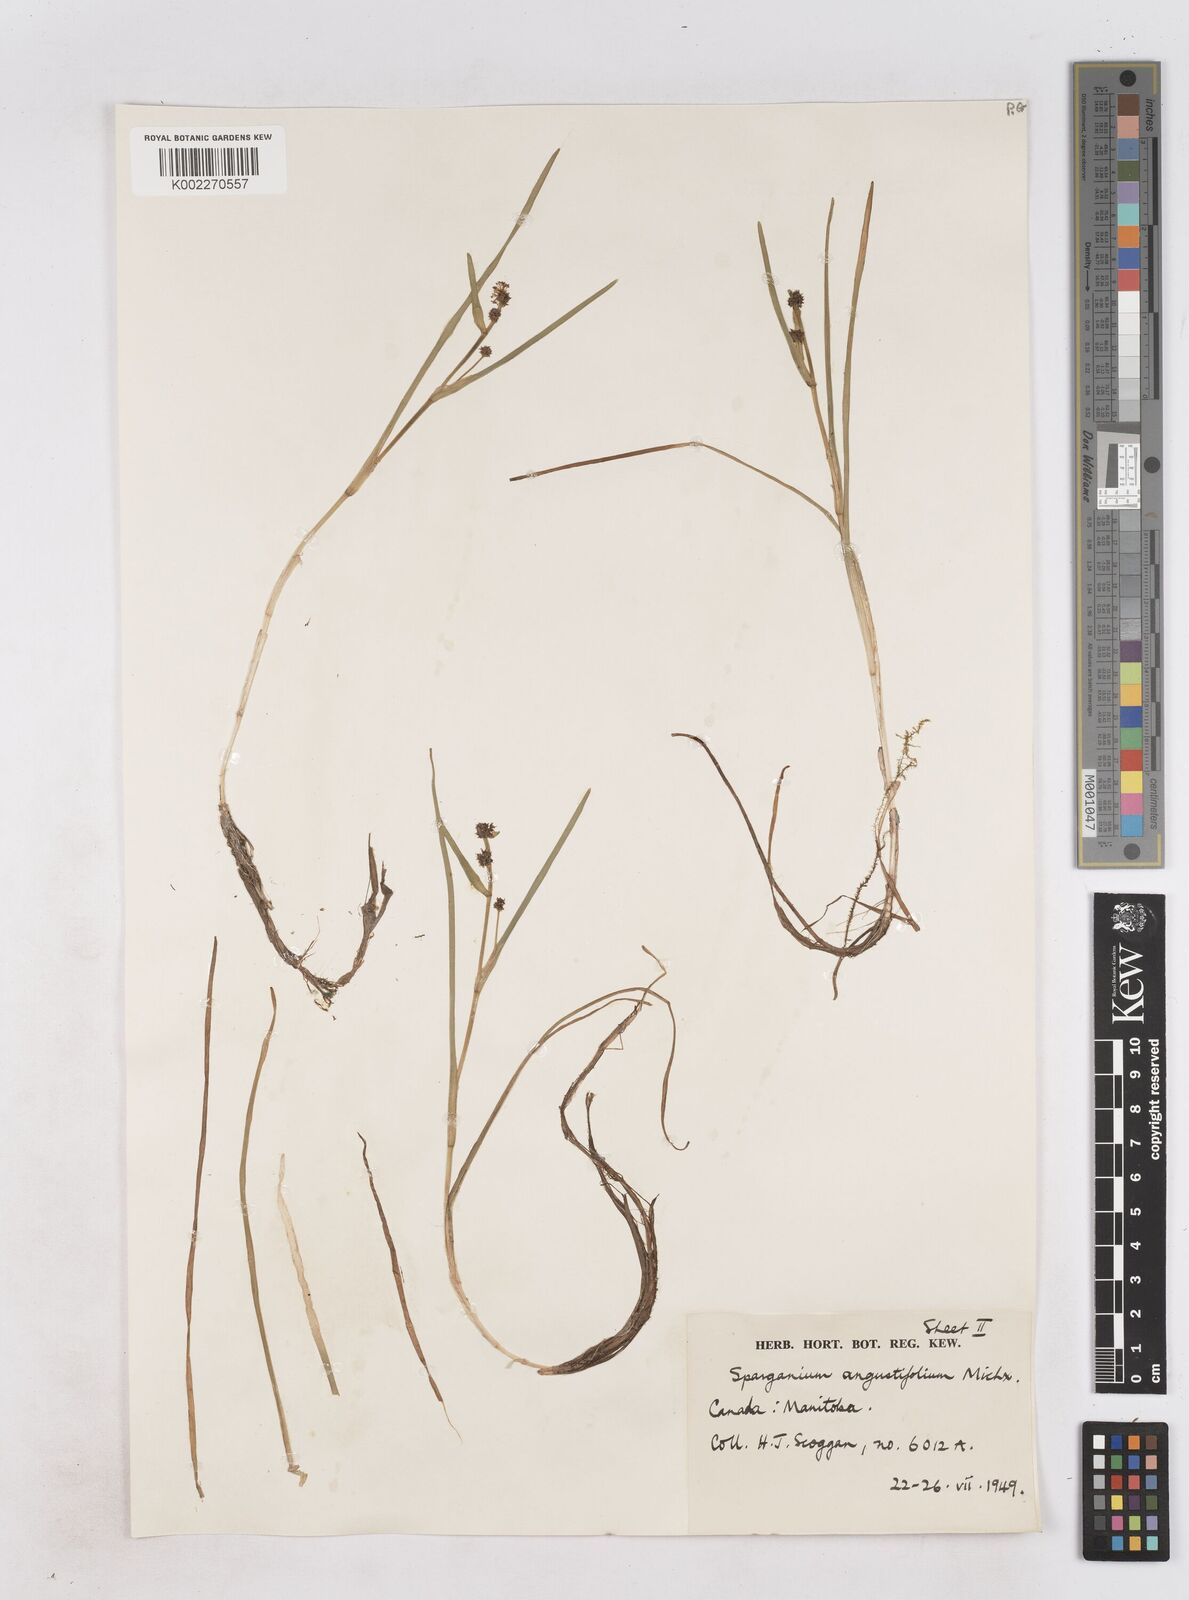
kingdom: Plantae
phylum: Tracheophyta
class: Liliopsida
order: Poales
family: Typhaceae
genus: Sparganium
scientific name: Sparganium angustifolium
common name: Floating bur-reed
